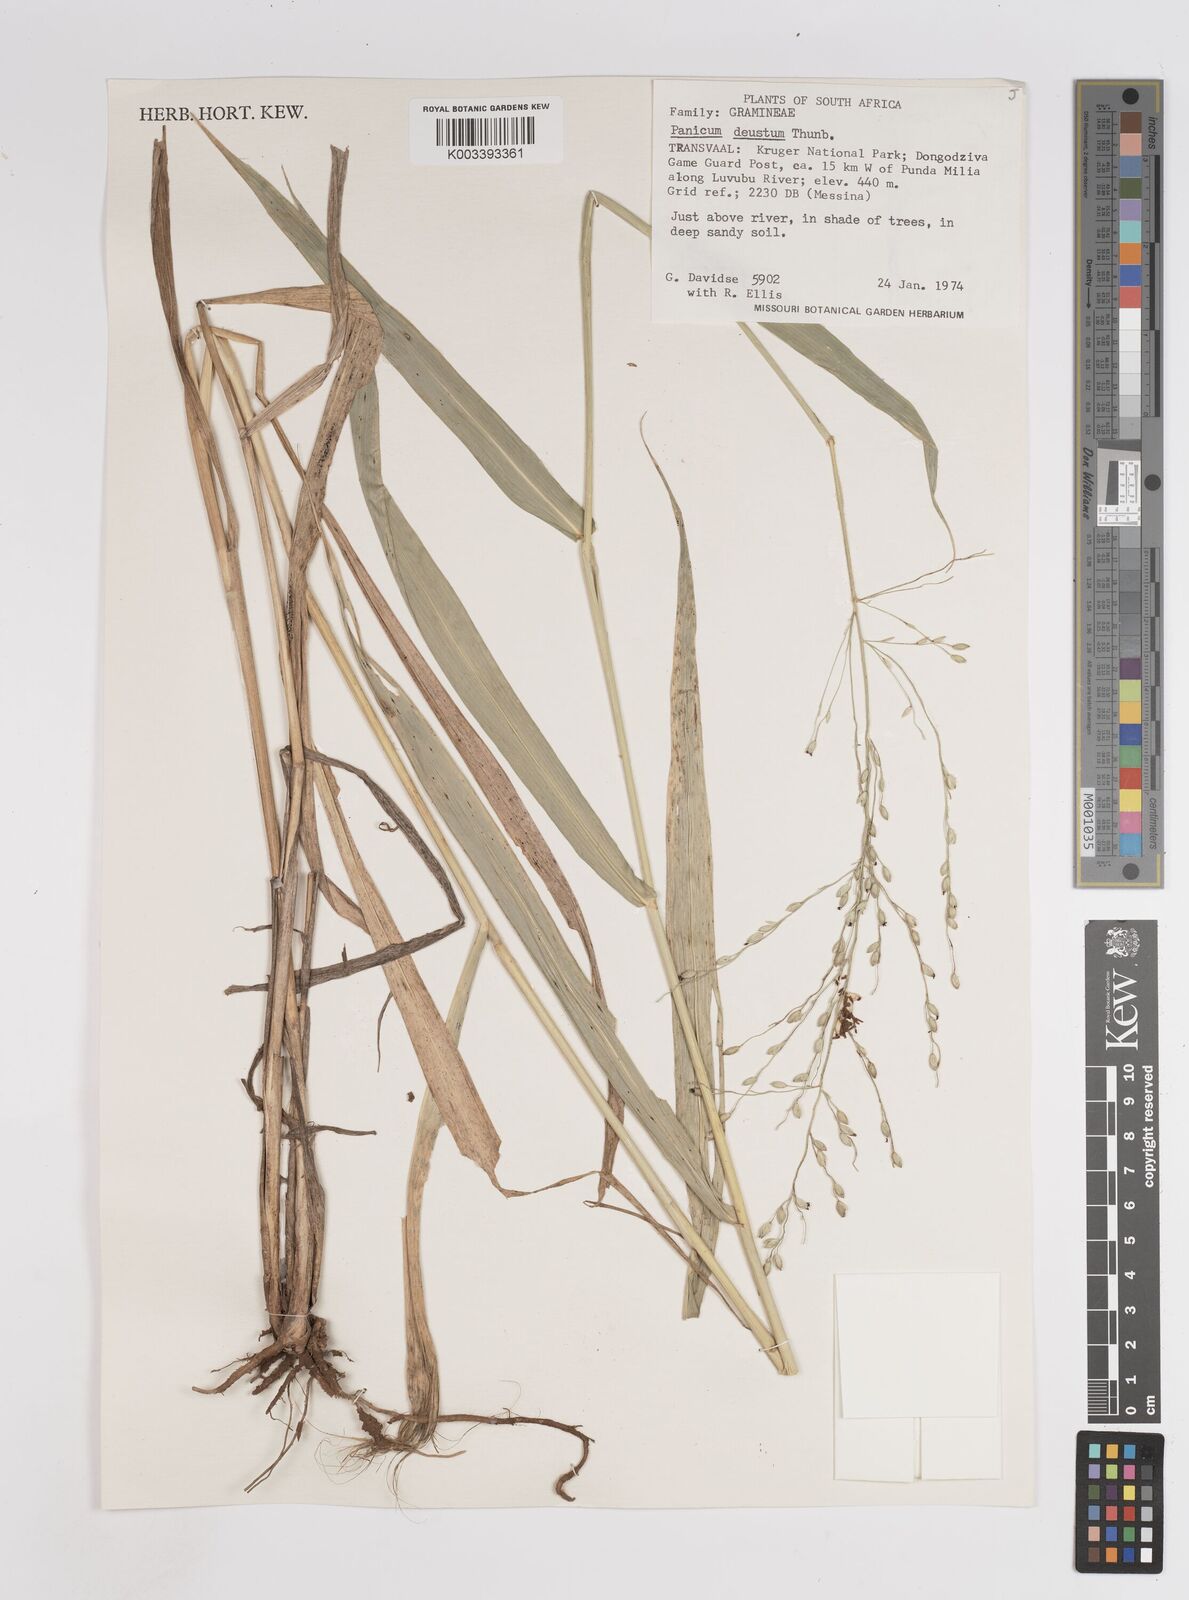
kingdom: Plantae
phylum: Tracheophyta
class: Liliopsida
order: Poales
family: Poaceae
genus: Panicum
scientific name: Panicum deustum
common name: Reed panicum
